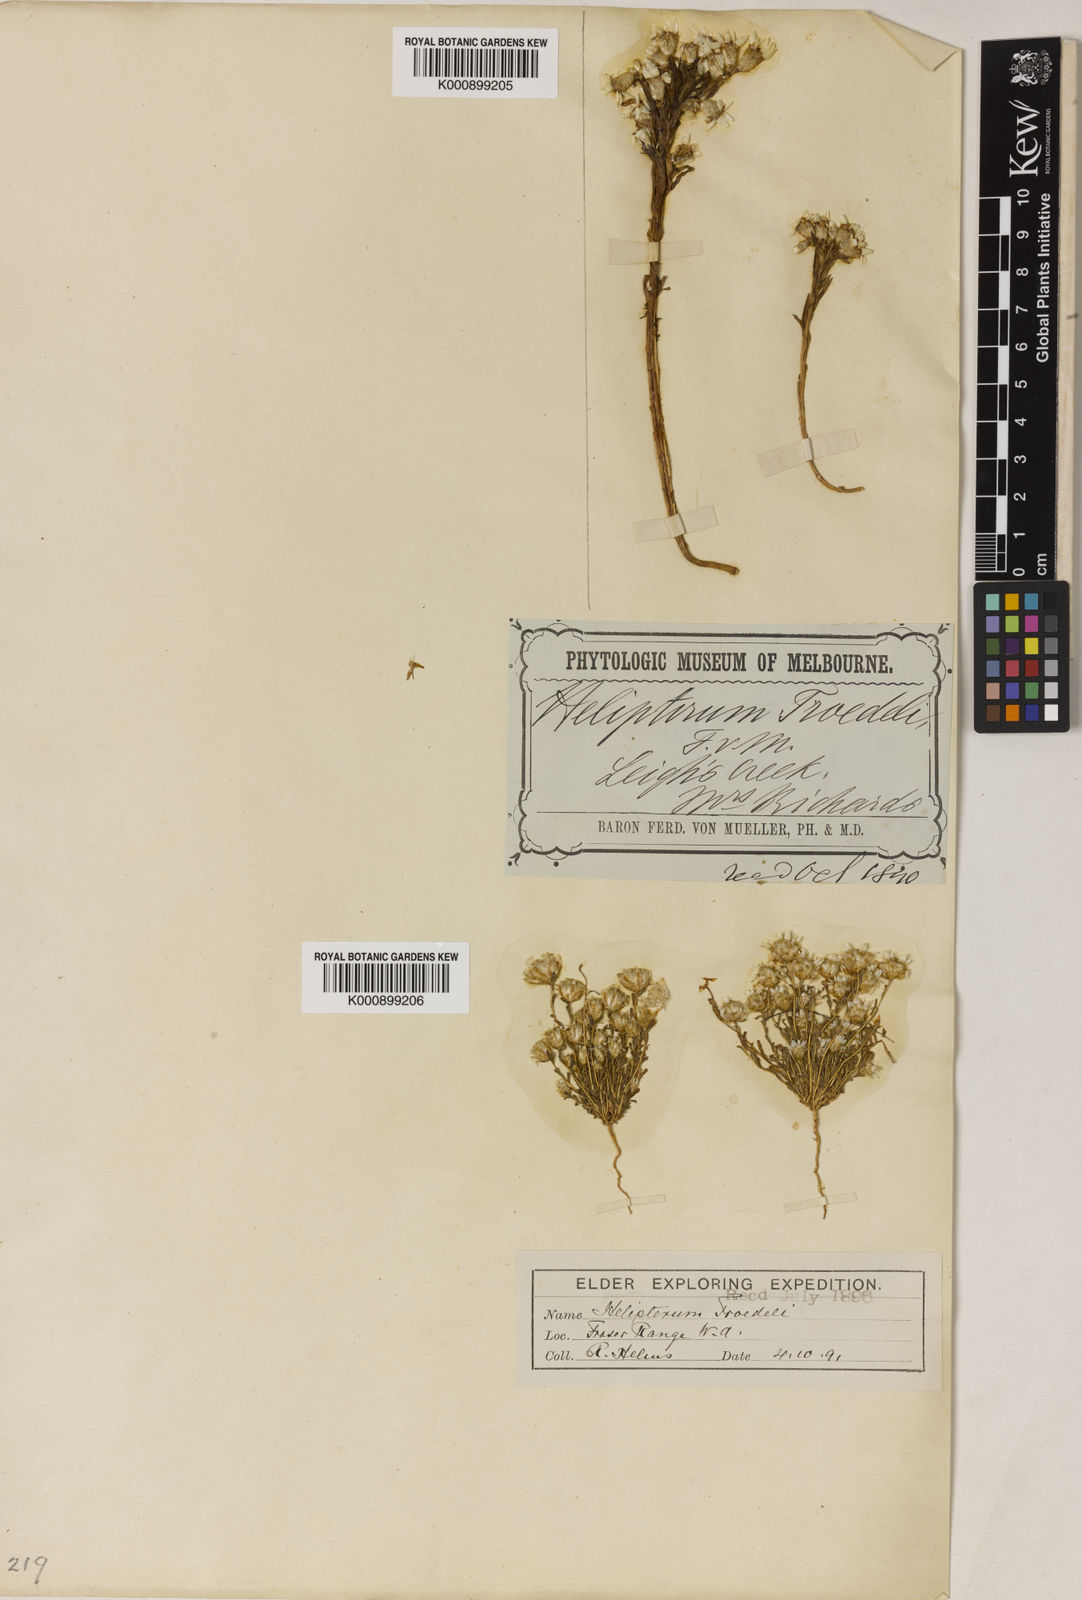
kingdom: Plantae
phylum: Tracheophyta
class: Magnoliopsida
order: Asterales
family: Asteraceae
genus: Rhodanthe
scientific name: Rhodanthe troedelii
